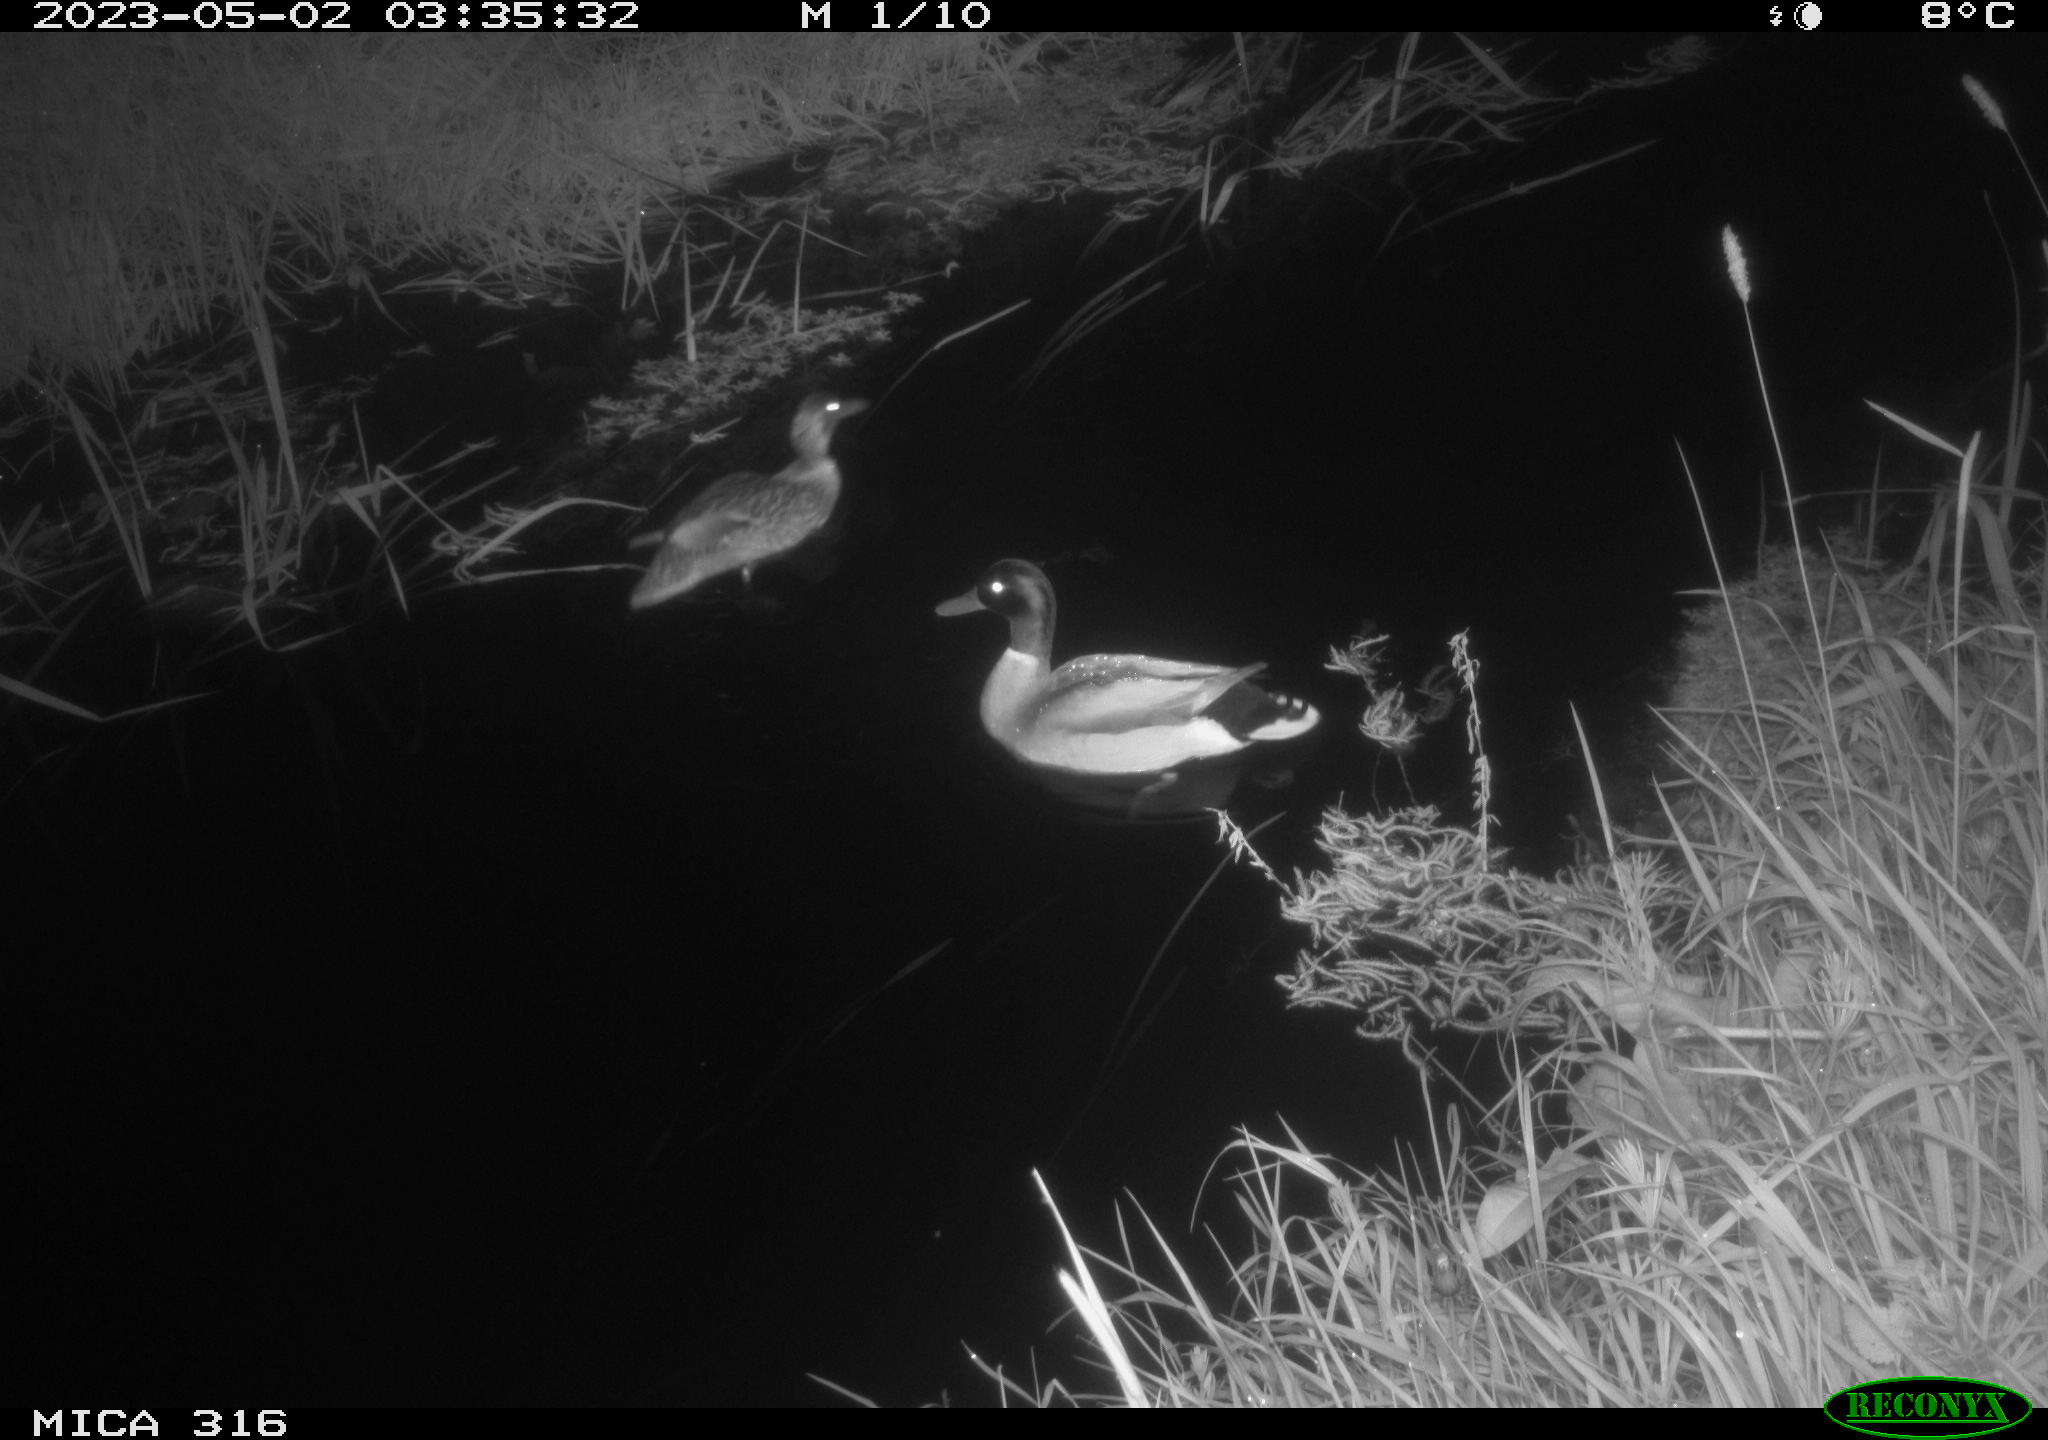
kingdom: Animalia
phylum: Chordata
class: Aves
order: Anseriformes
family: Anatidae
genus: Anas
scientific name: Anas
